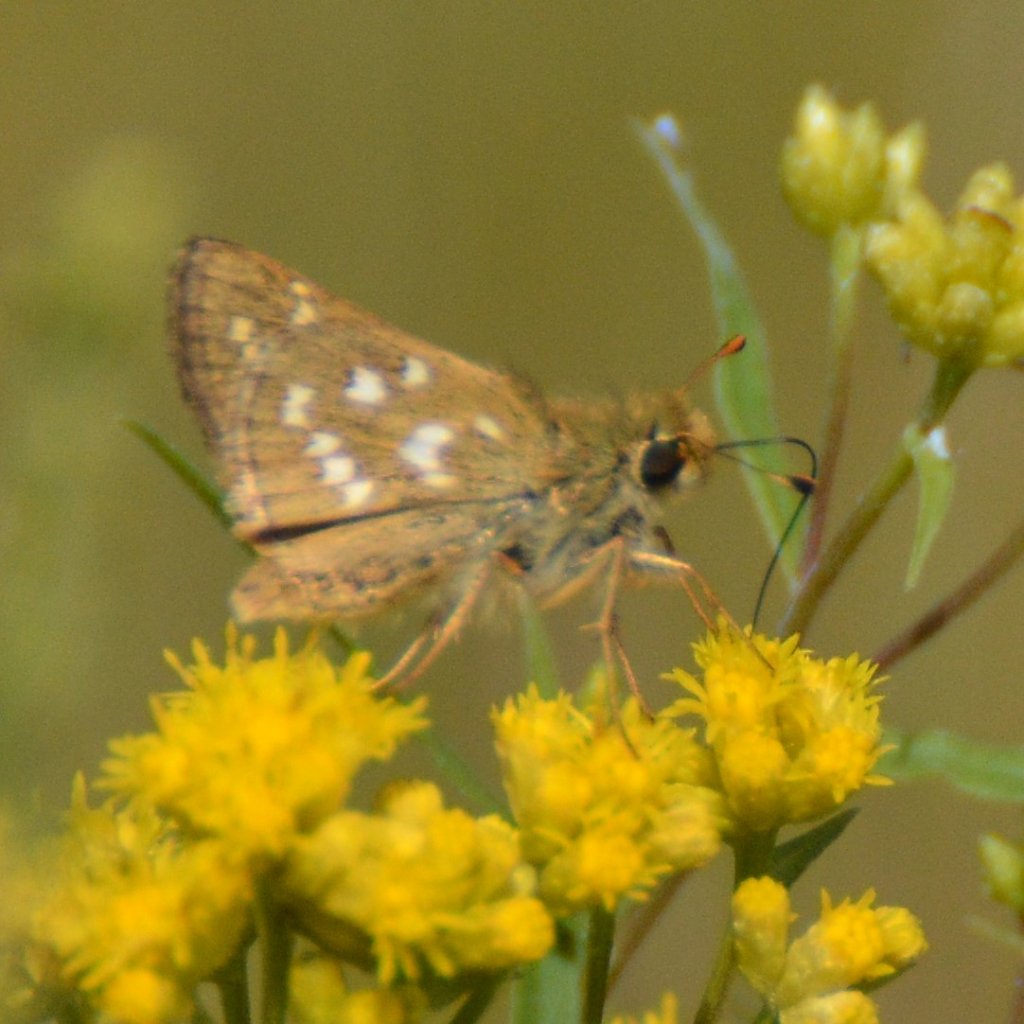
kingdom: Animalia
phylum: Arthropoda
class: Insecta
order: Lepidoptera
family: Hesperiidae
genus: Hesperia
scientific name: Hesperia comma
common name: Common Branded Skipper
